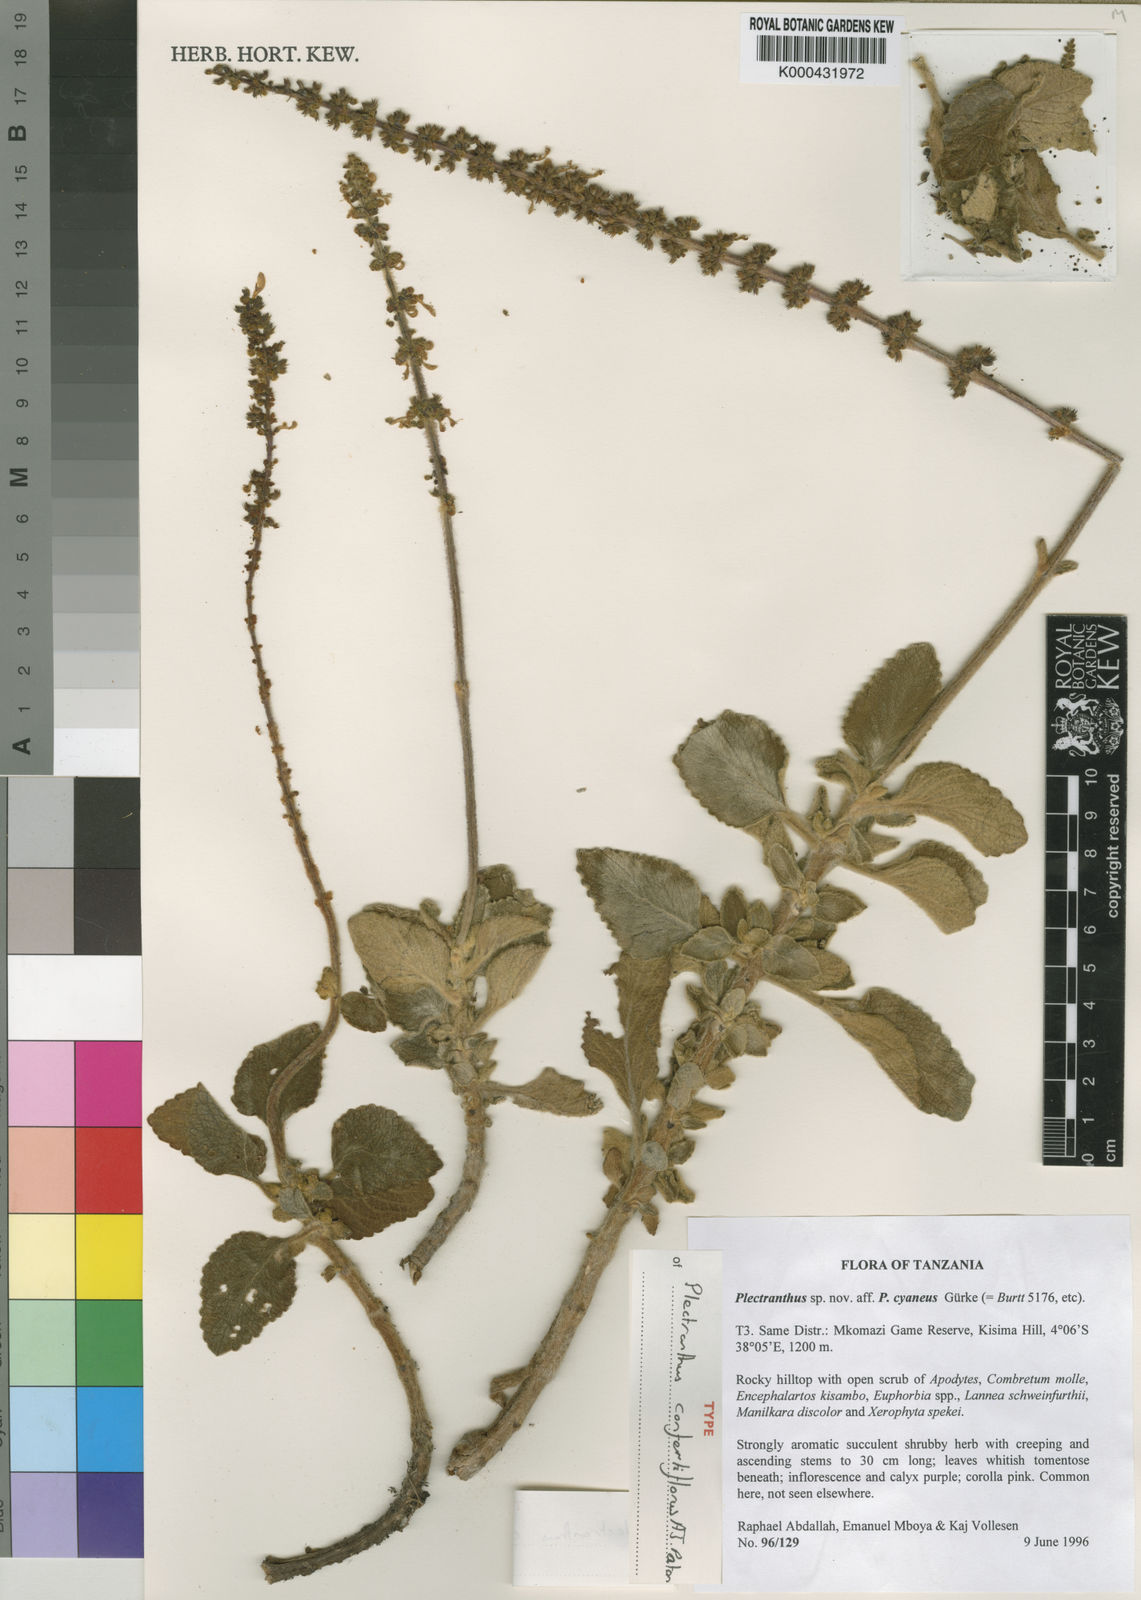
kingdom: Plantae
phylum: Tracheophyta
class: Magnoliopsida
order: Lamiales
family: Lamiaceae
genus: Coleus
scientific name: Coleus confertiflorus
